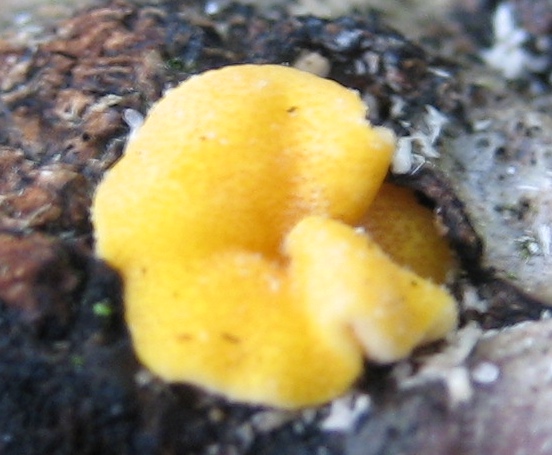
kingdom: Fungi
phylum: Ascomycota
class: Sordariomycetes
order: Hypocreales
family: Hypocreaceae
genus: Trichoderma
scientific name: Trichoderma aureoviride
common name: æggegul kødkerne
